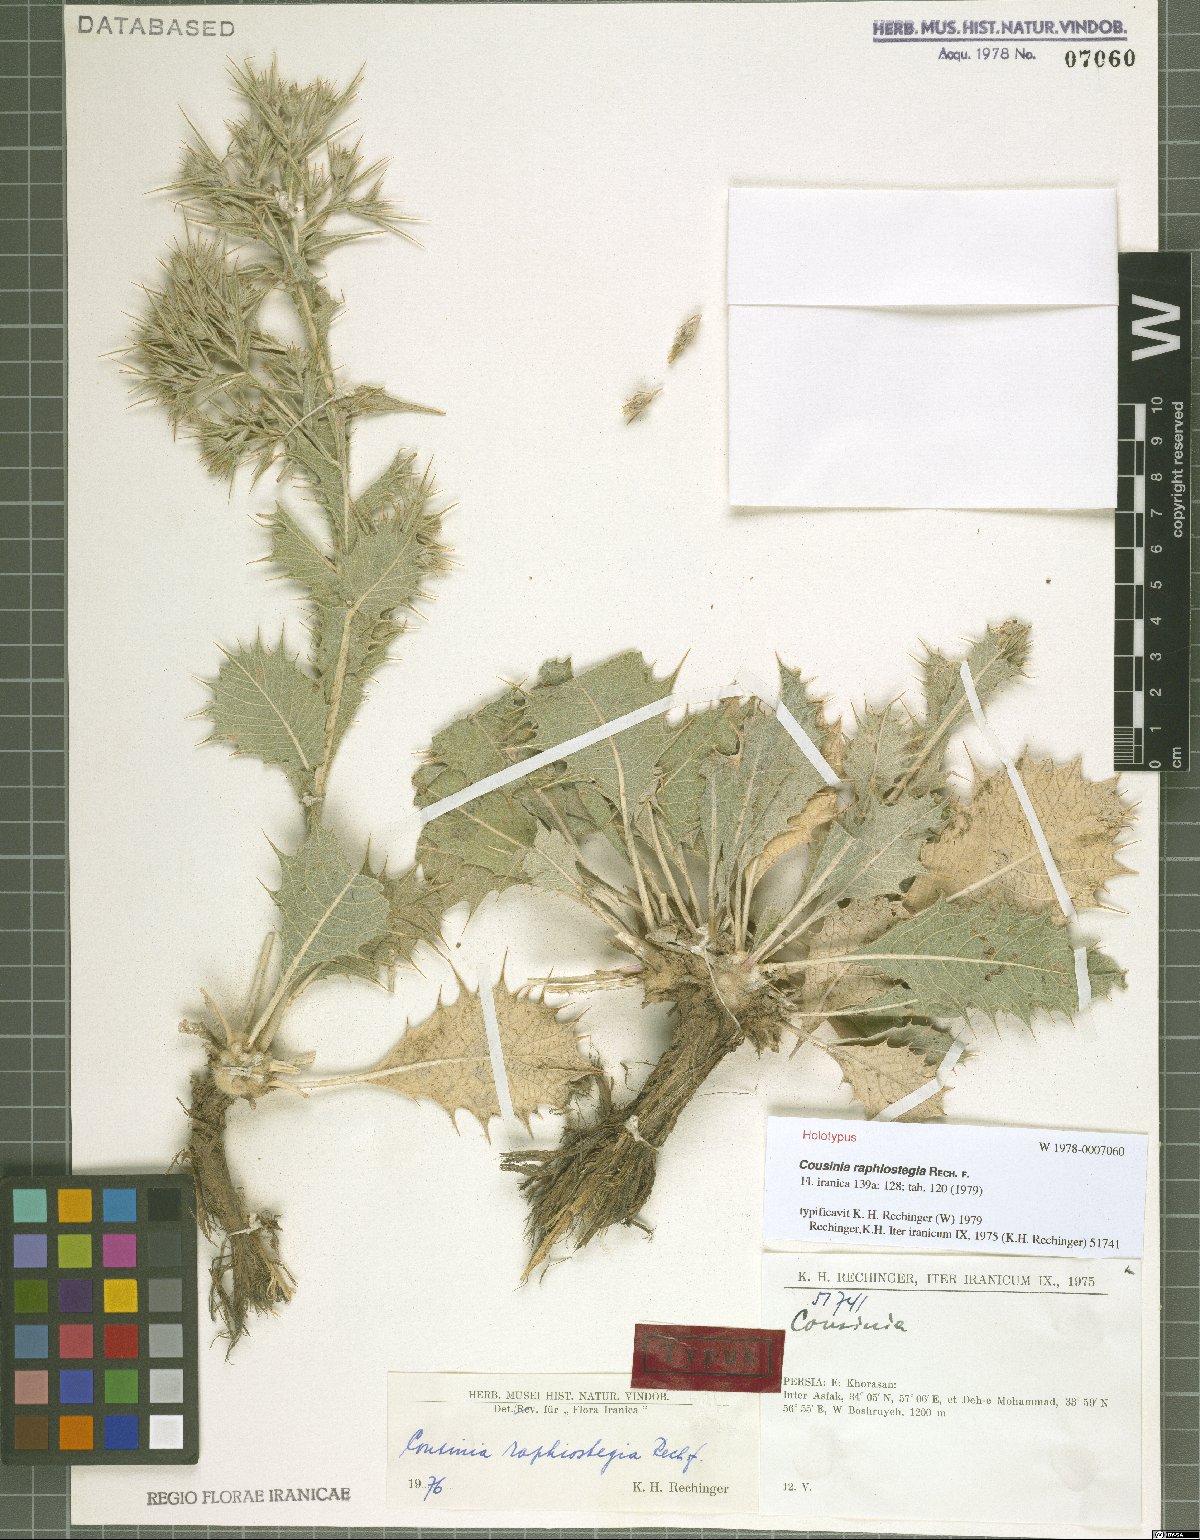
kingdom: Plantae
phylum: Tracheophyta
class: Magnoliopsida
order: Asterales
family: Asteraceae
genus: Cousinia
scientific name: Cousinia raphiostegia
